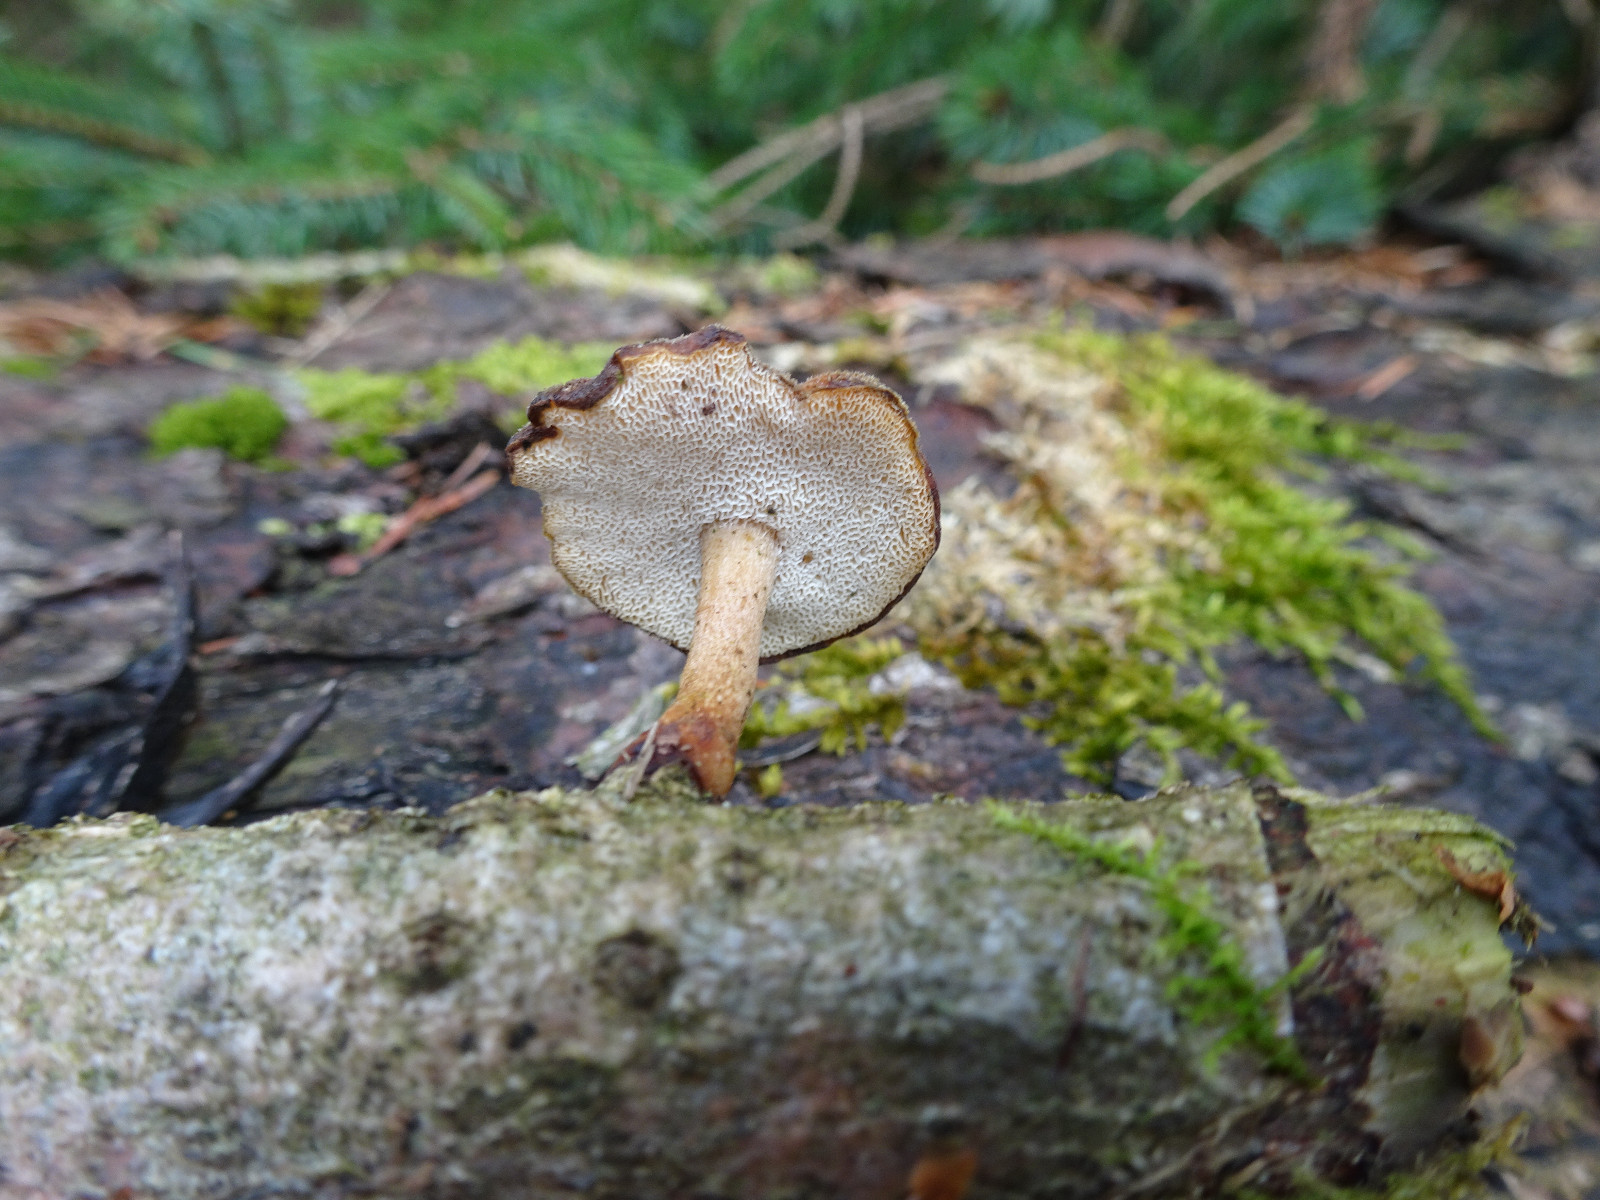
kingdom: Fungi
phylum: Basidiomycota
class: Agaricomycetes
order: Polyporales
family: Polyporaceae
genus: Lentinus
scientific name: Lentinus brumalis
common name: vinter-stilkporesvamp
